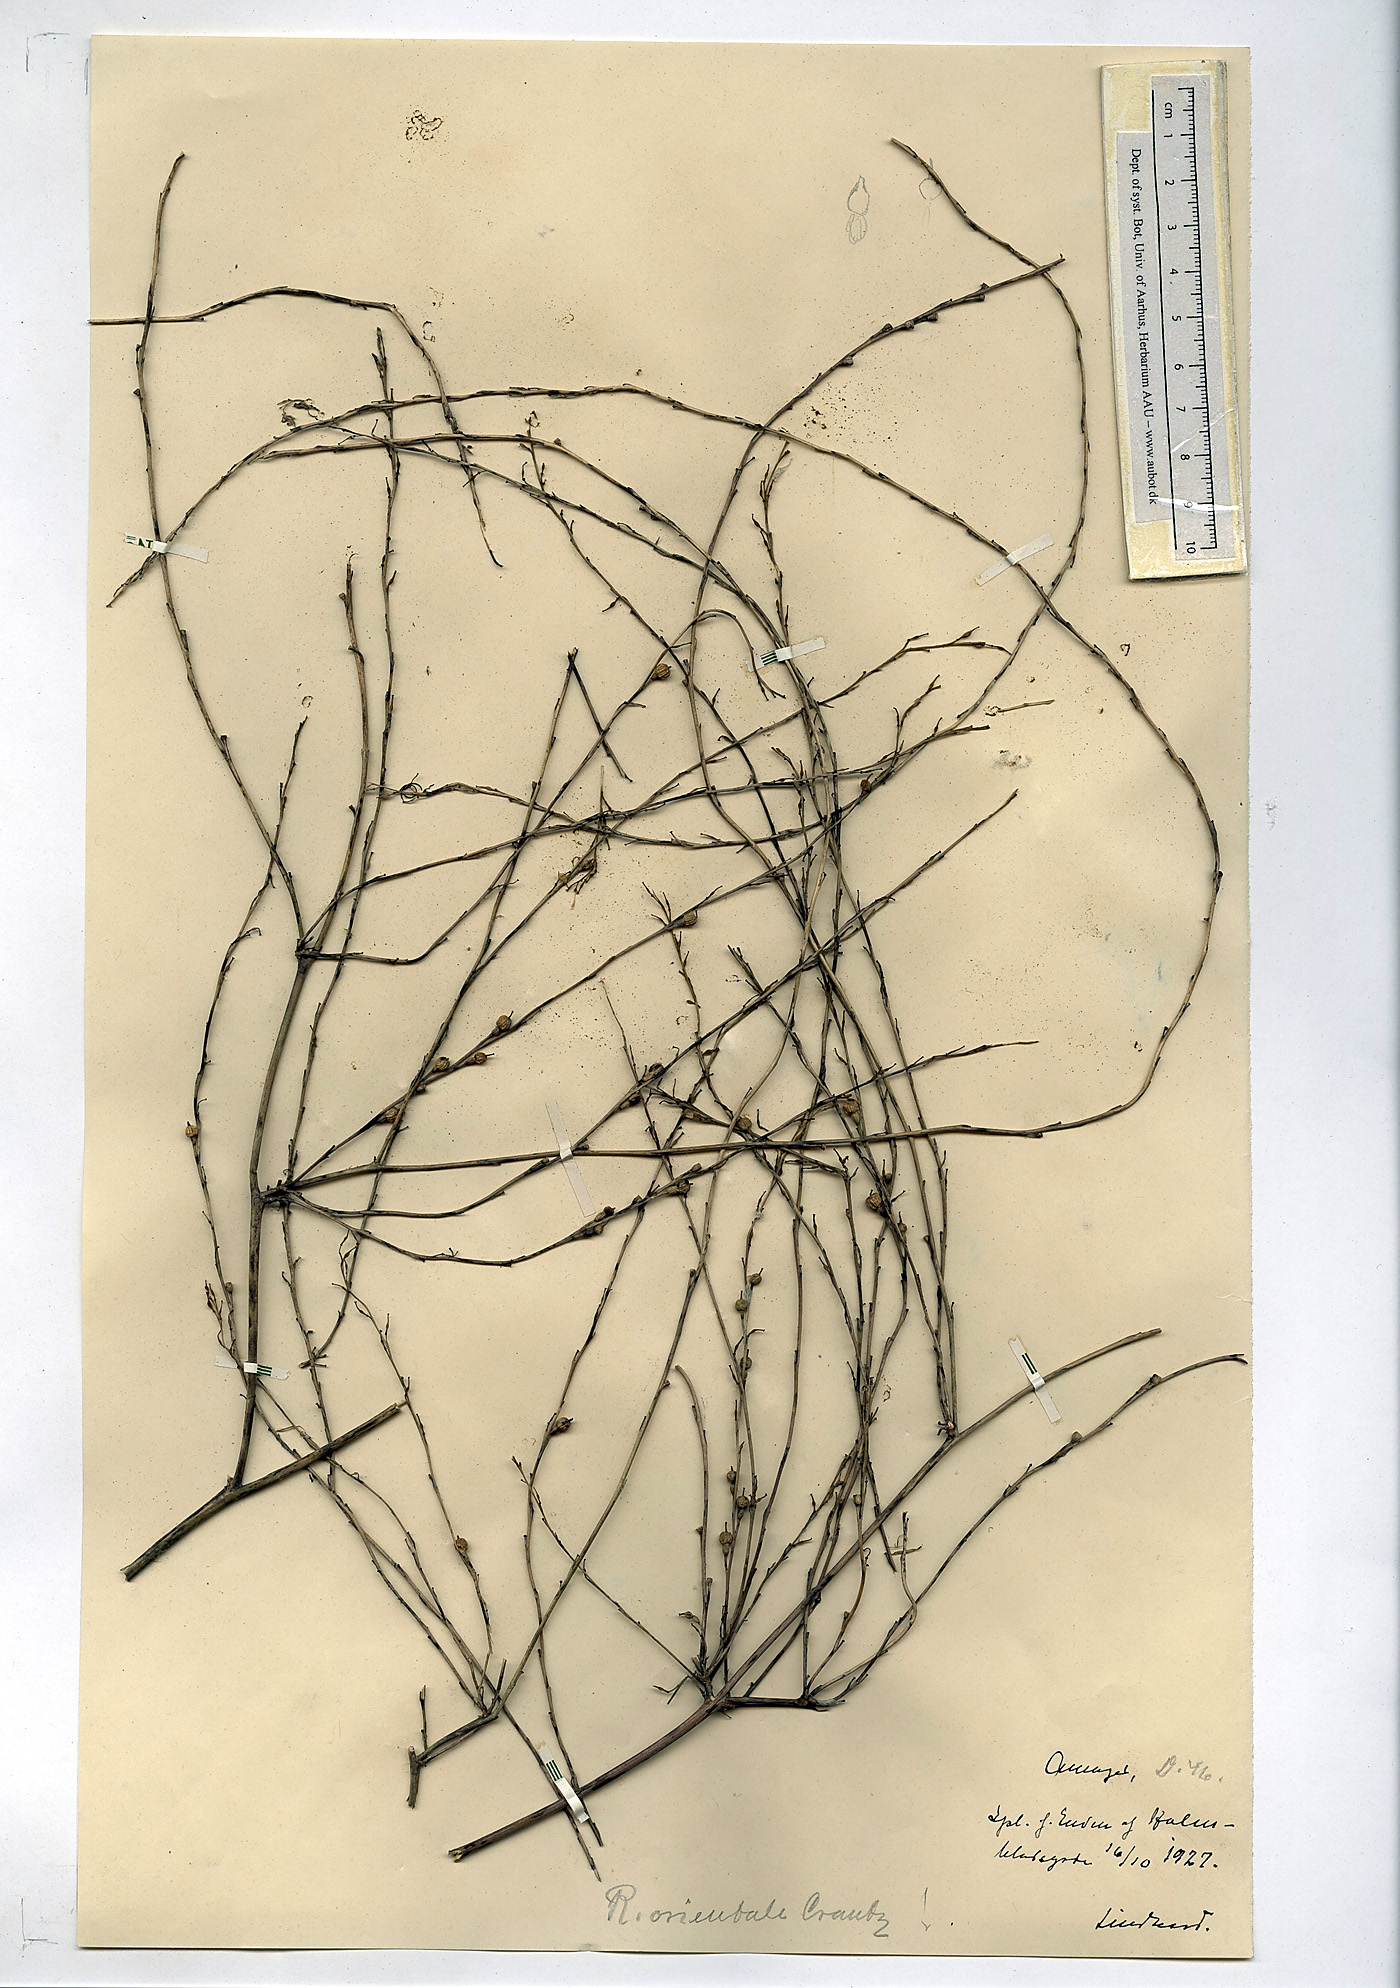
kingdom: Plantae
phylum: Tracheophyta
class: Magnoliopsida
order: Brassicales
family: Brassicaceae
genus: Rapistrum
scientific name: Rapistrum rugosum
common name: Annual bastardcabbage
